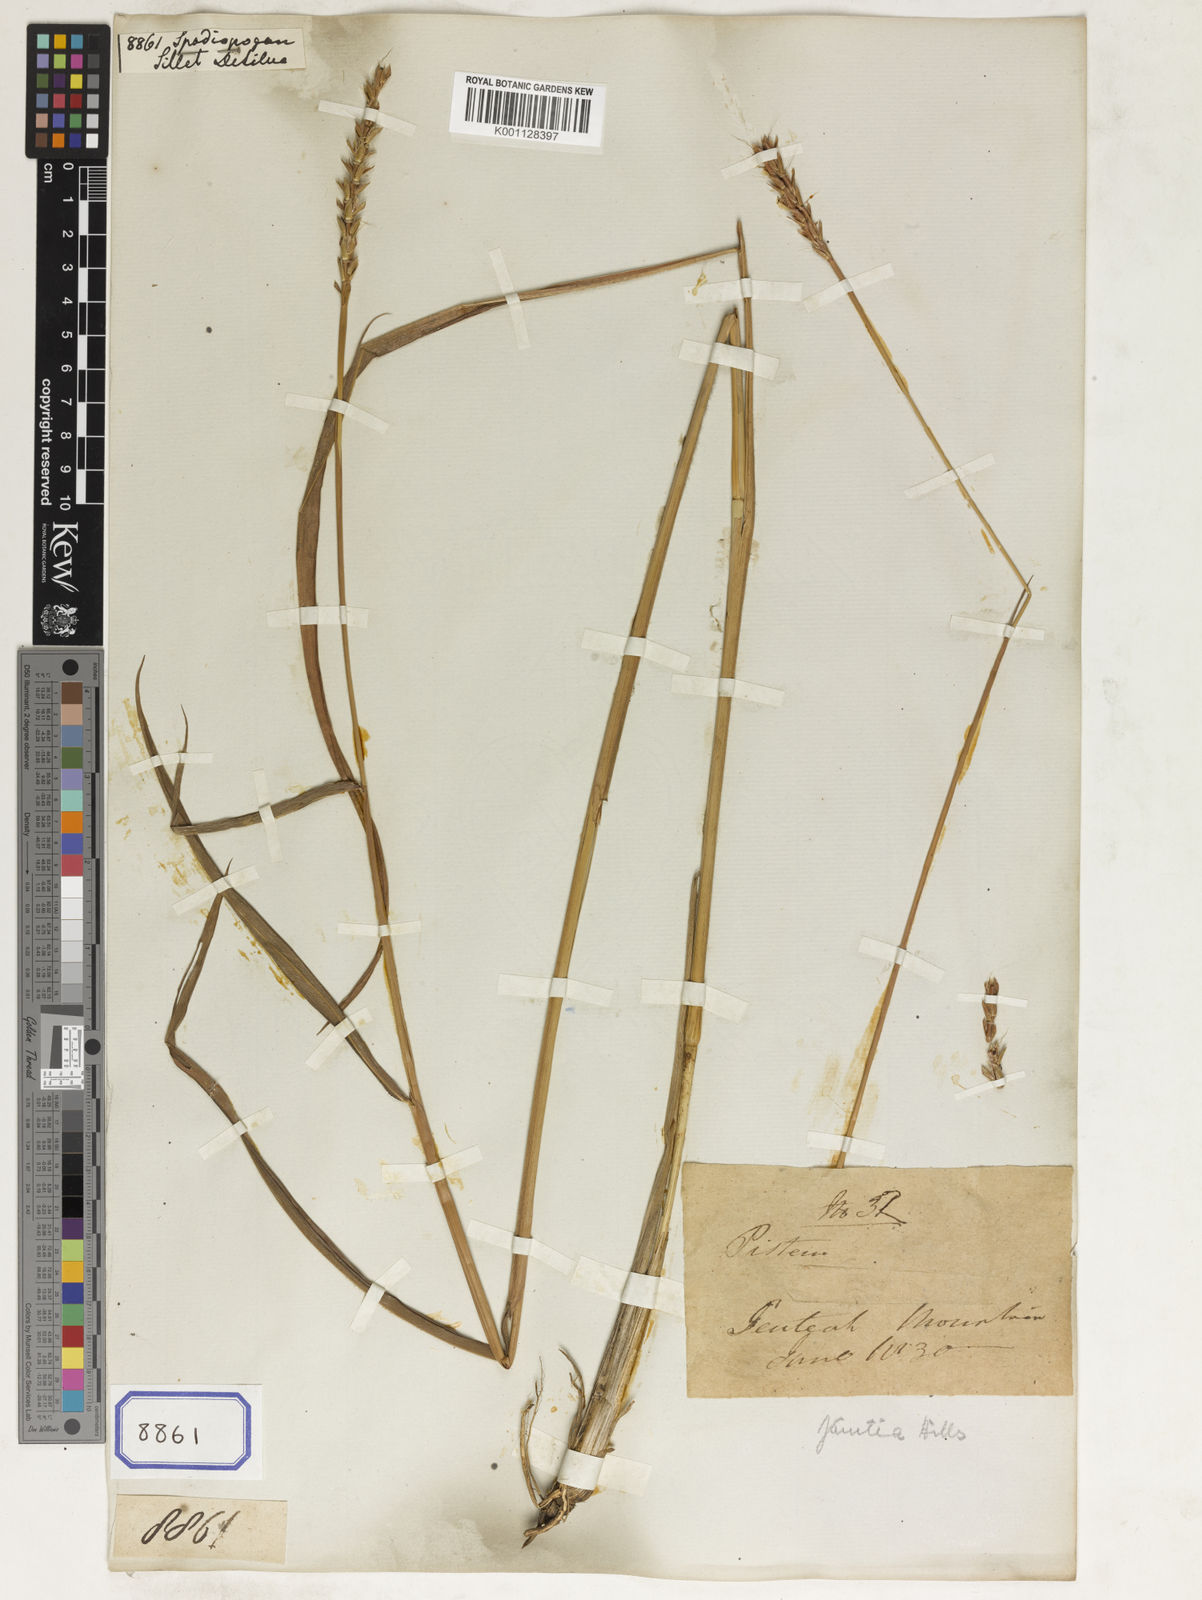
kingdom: Plantae
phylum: Tracheophyta
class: Liliopsida
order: Poales
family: Poaceae
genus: Spodiopogon
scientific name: Spodiopogon
